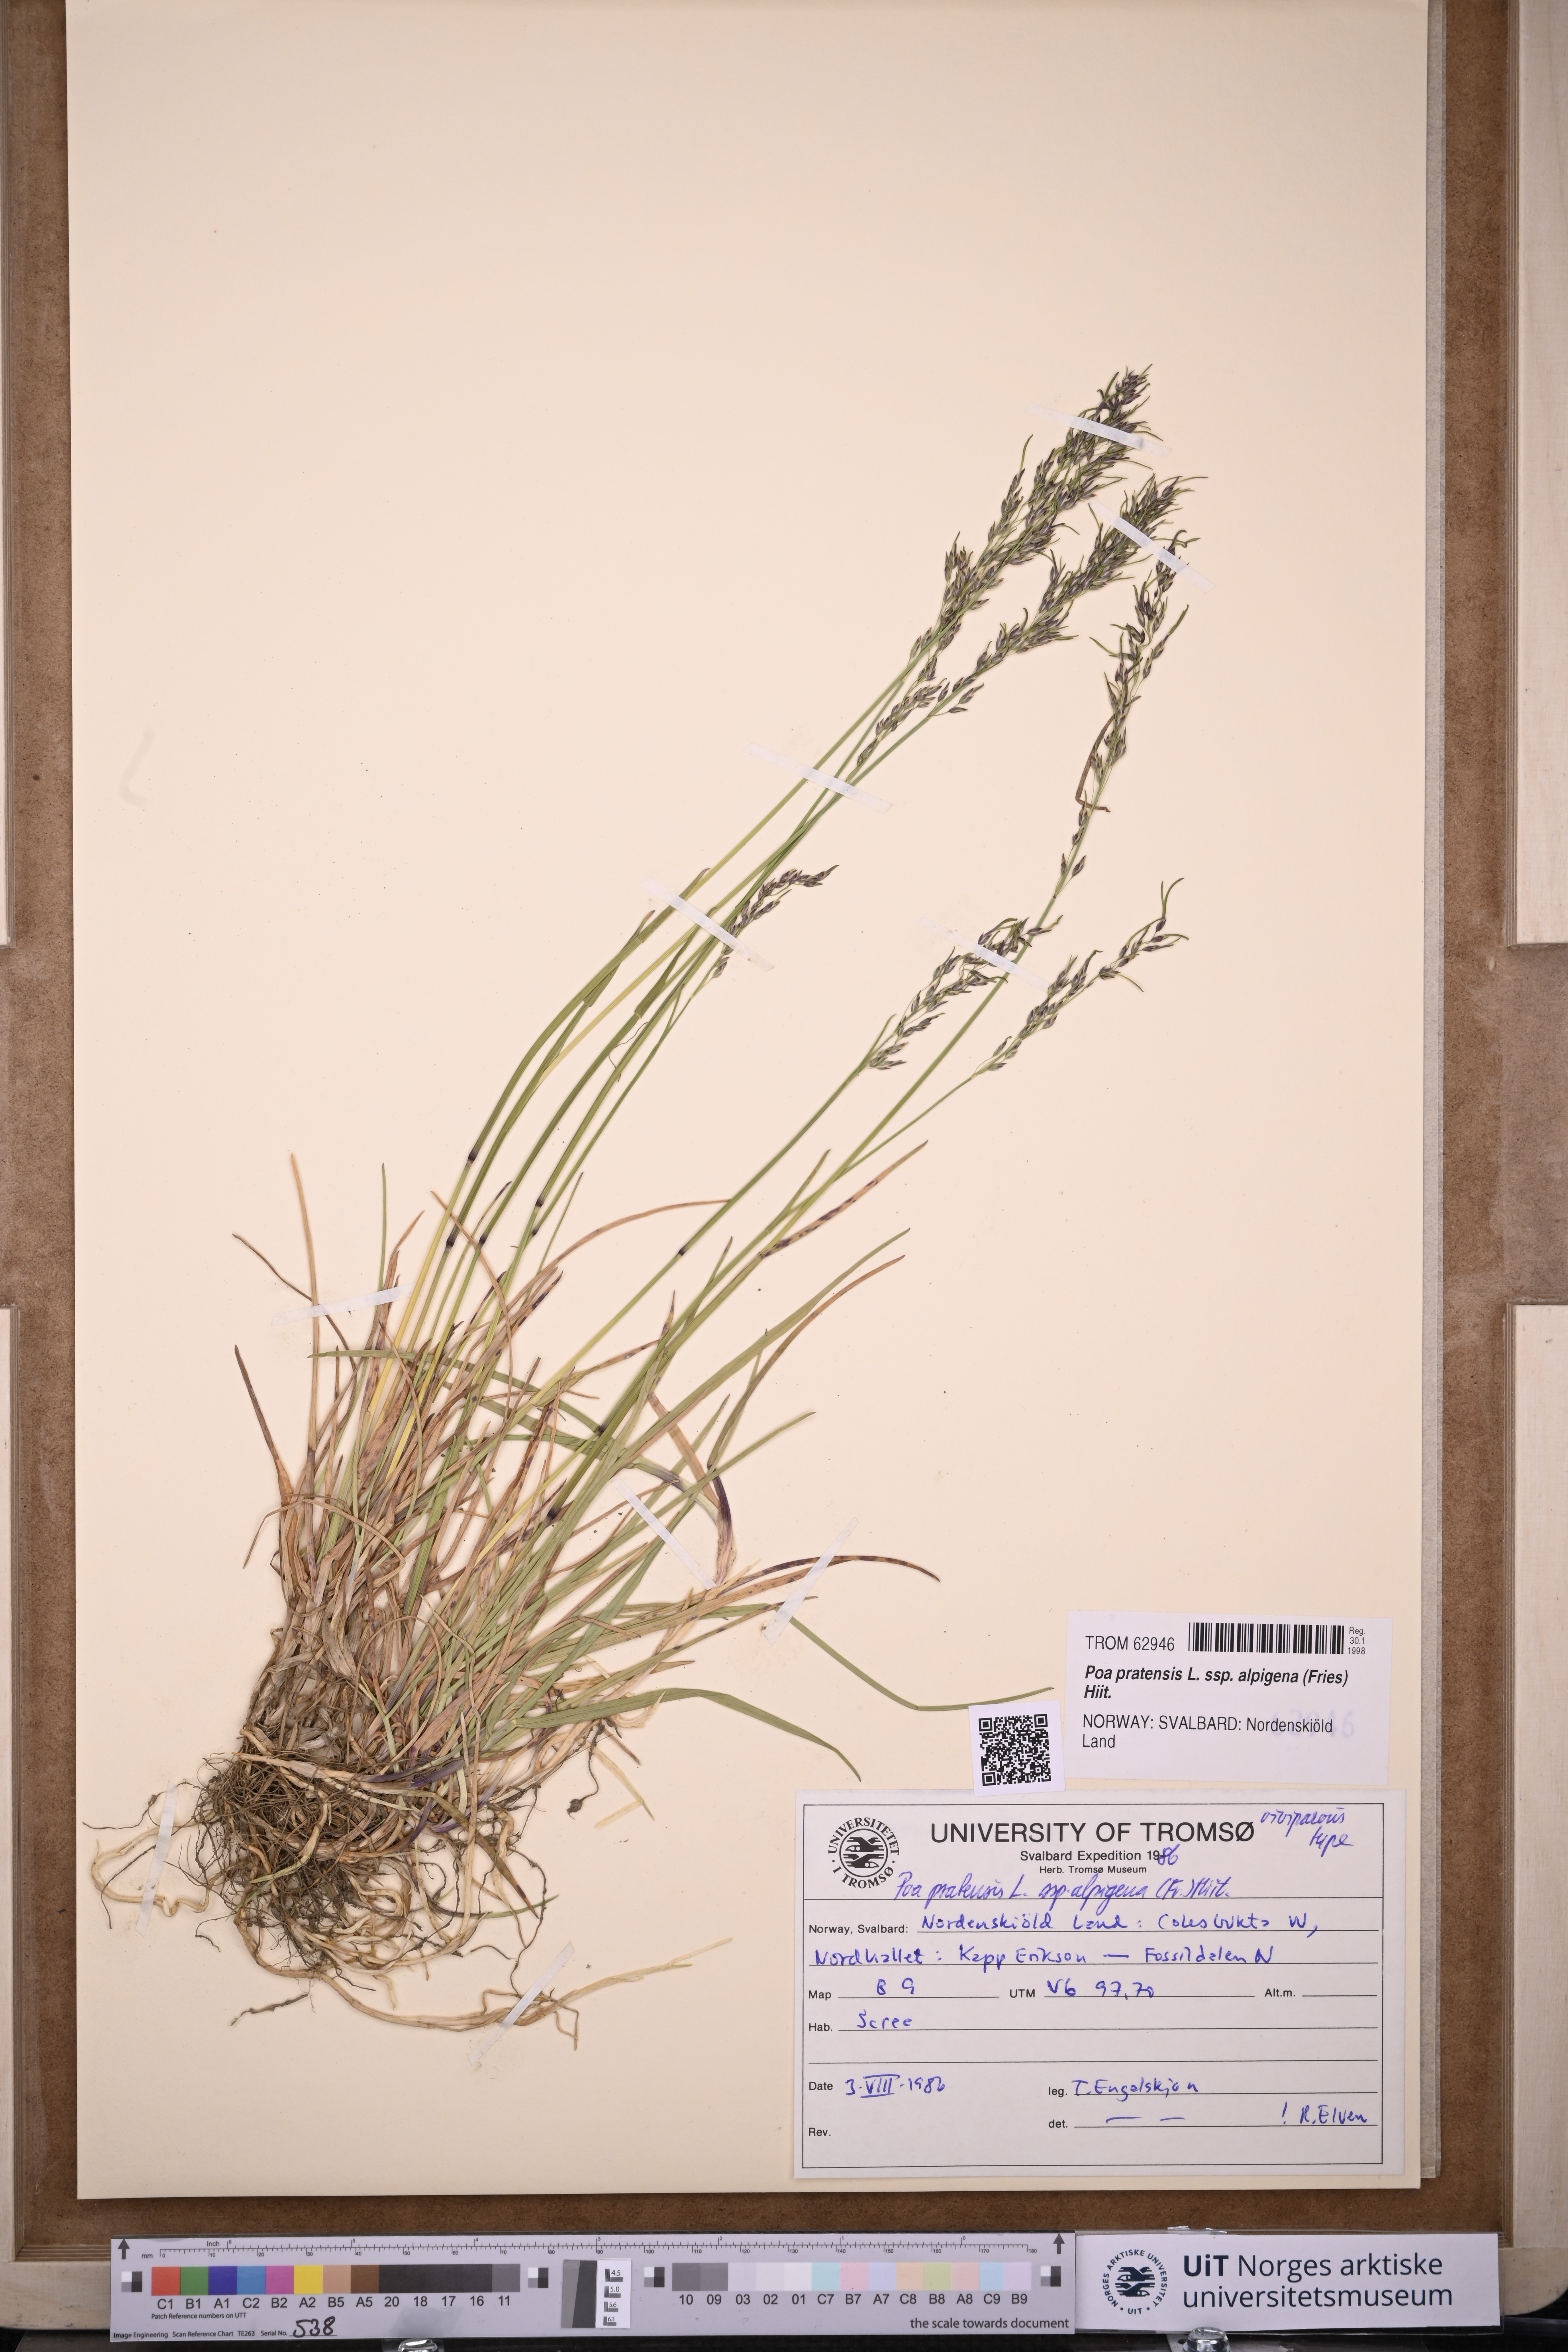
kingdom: Plantae
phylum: Tracheophyta
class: Liliopsida
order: Poales
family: Poaceae
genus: Poa
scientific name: Poa alpigena
